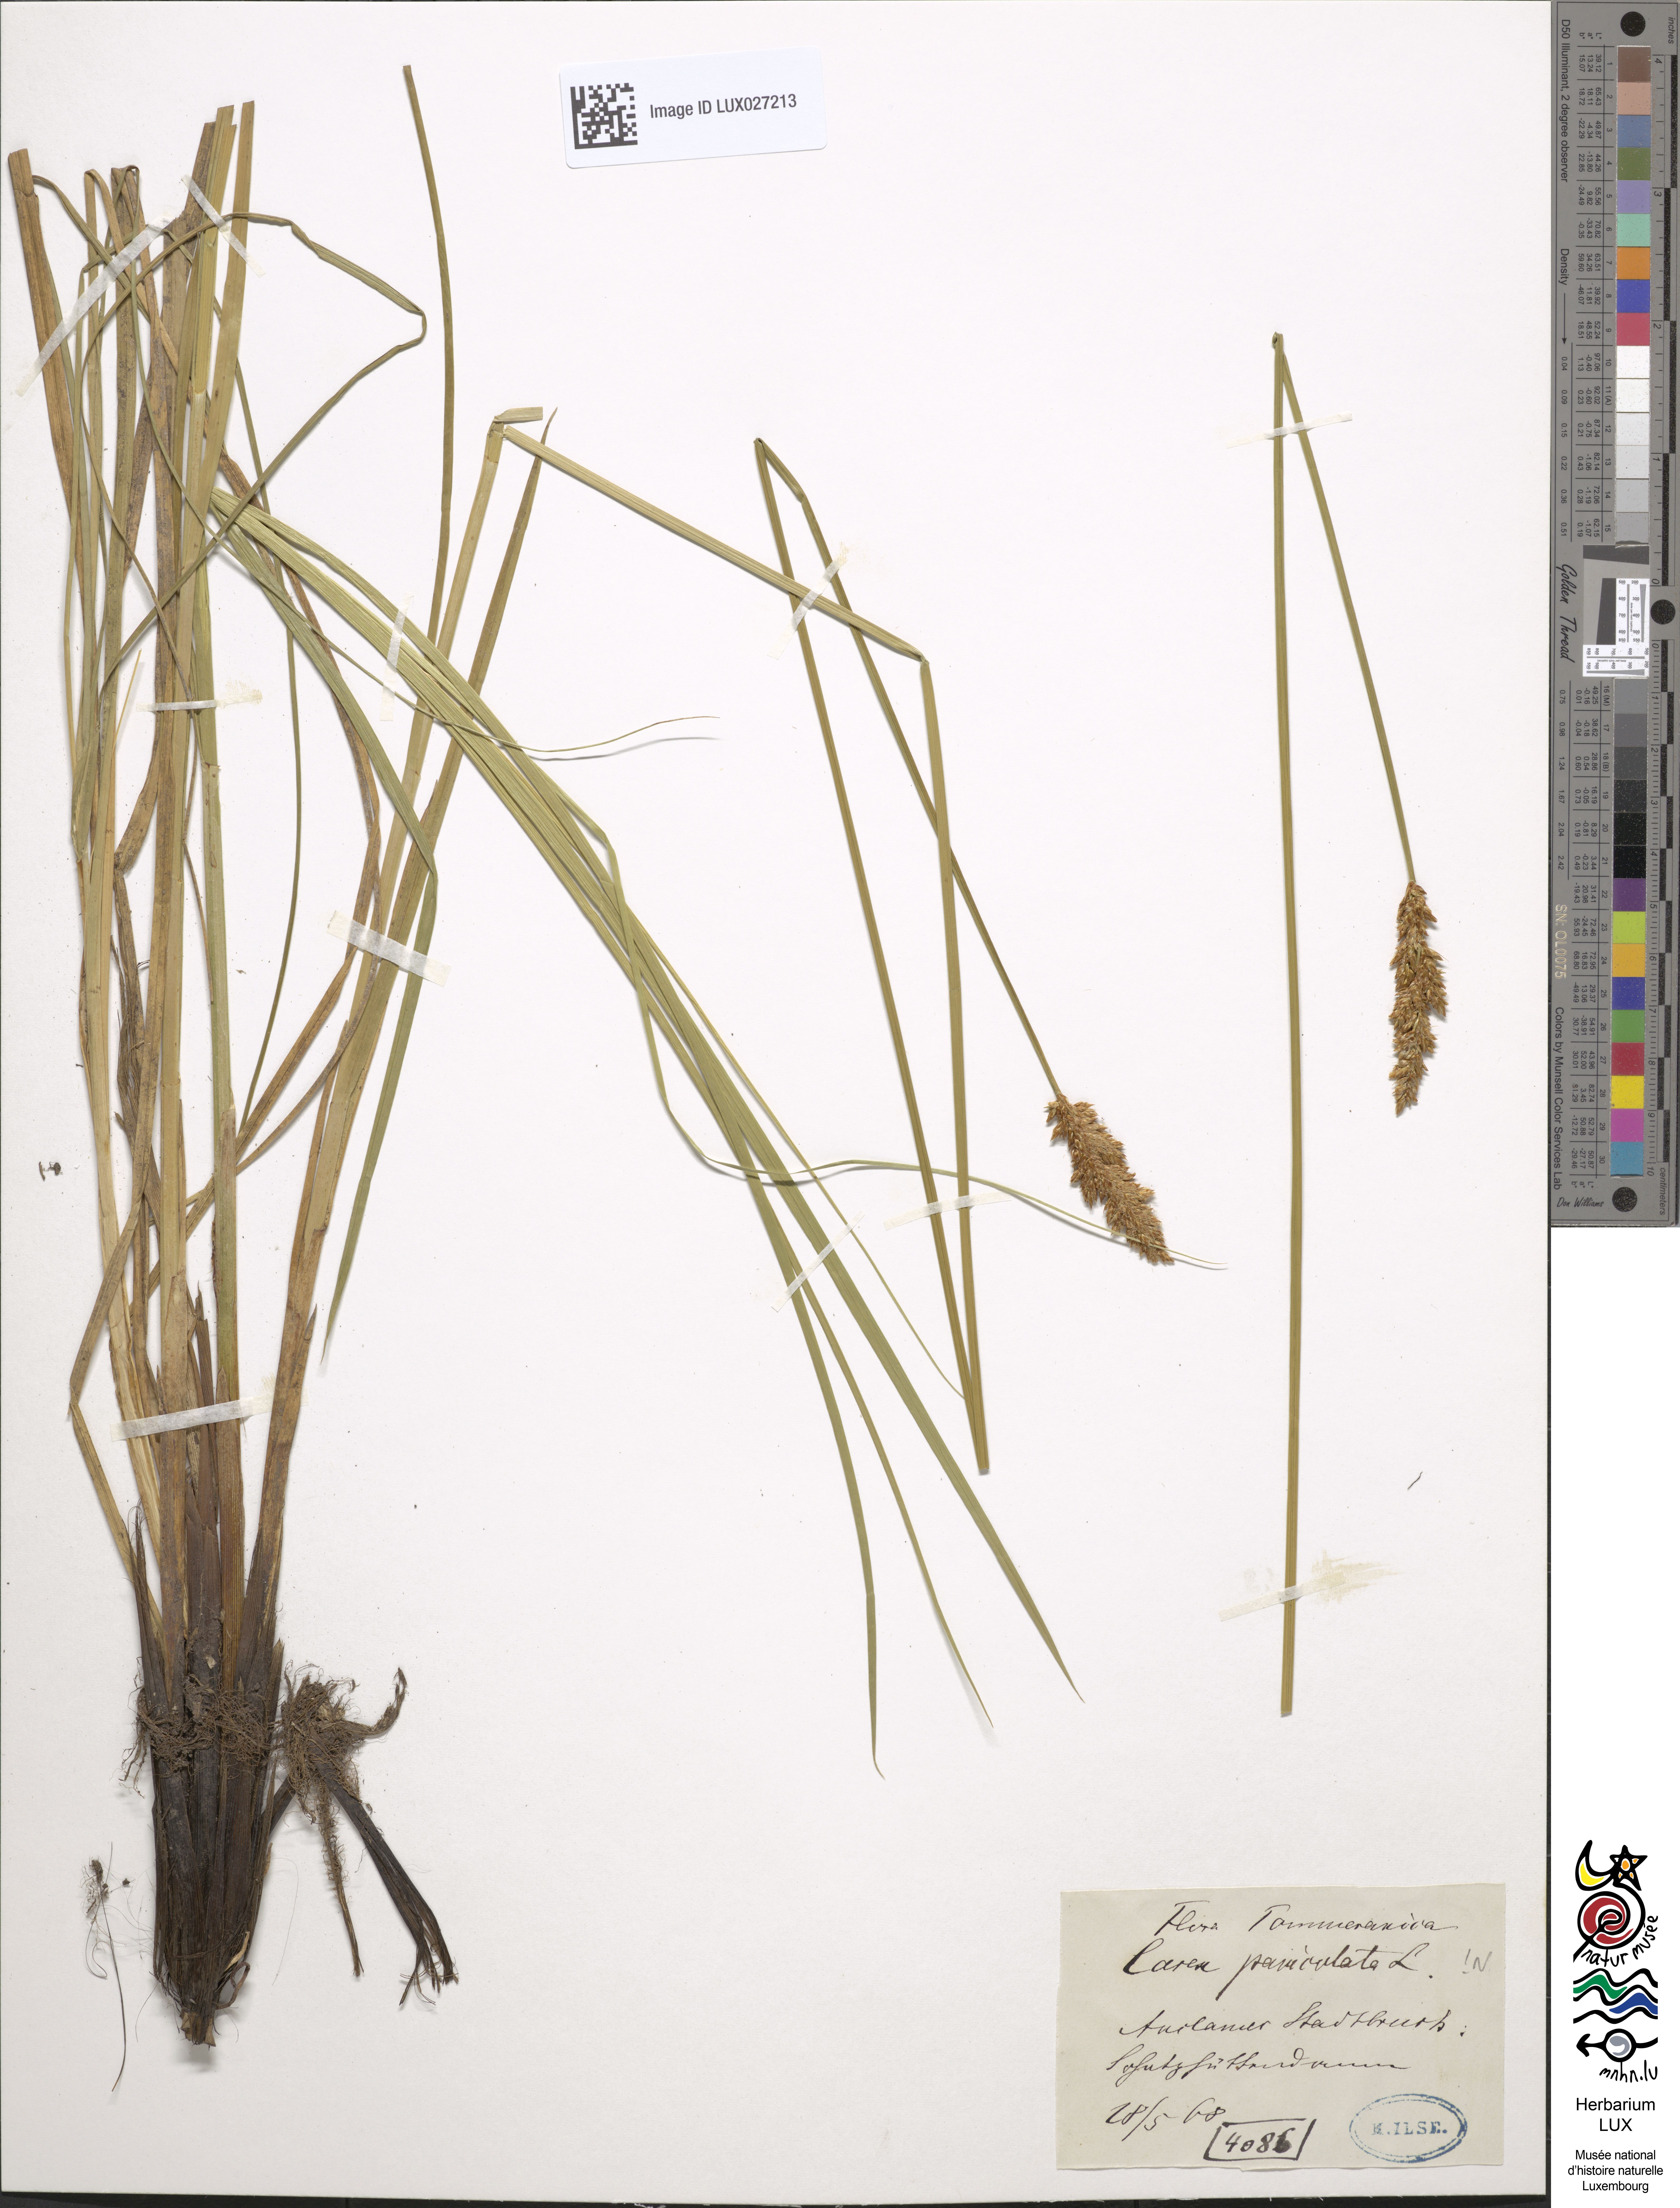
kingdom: Plantae
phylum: Tracheophyta
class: Liliopsida
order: Poales
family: Cyperaceae
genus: Carex
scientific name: Carex paniculata
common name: Greater tussock-sedge
